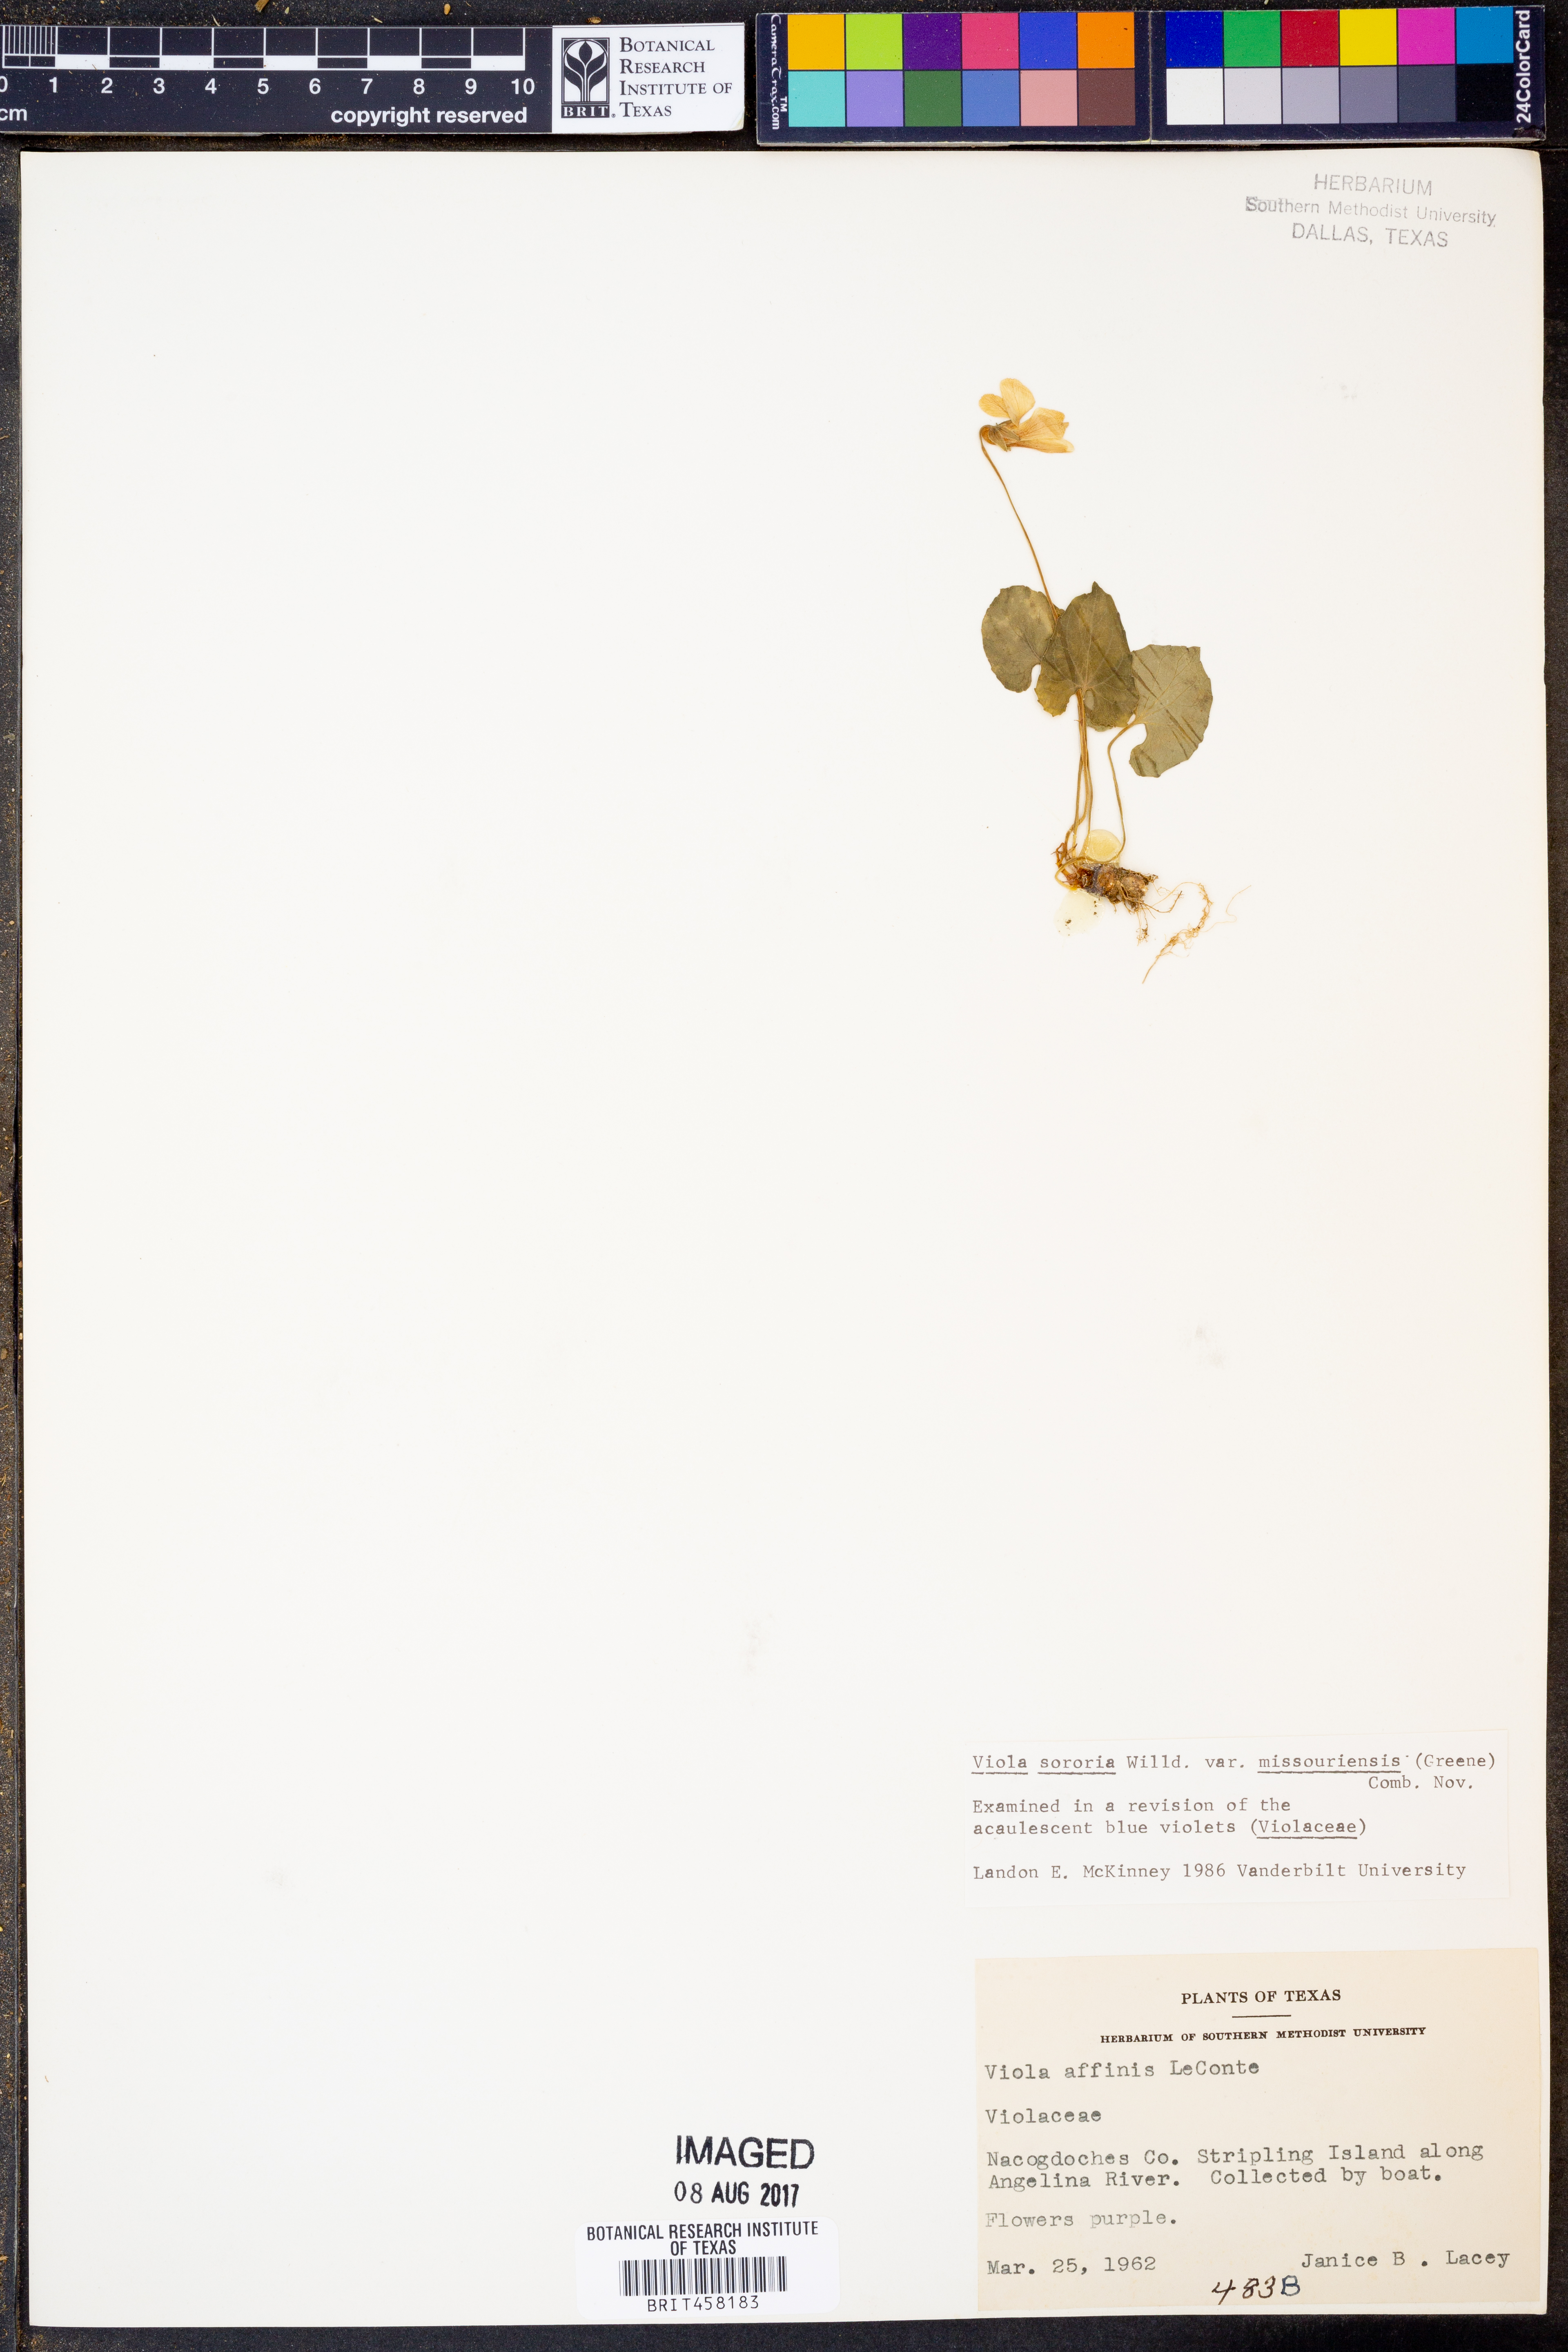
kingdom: Plantae
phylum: Tracheophyta
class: Magnoliopsida
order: Malpighiales
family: Violaceae
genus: Viola
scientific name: Viola missouriensis
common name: Missouri violet
